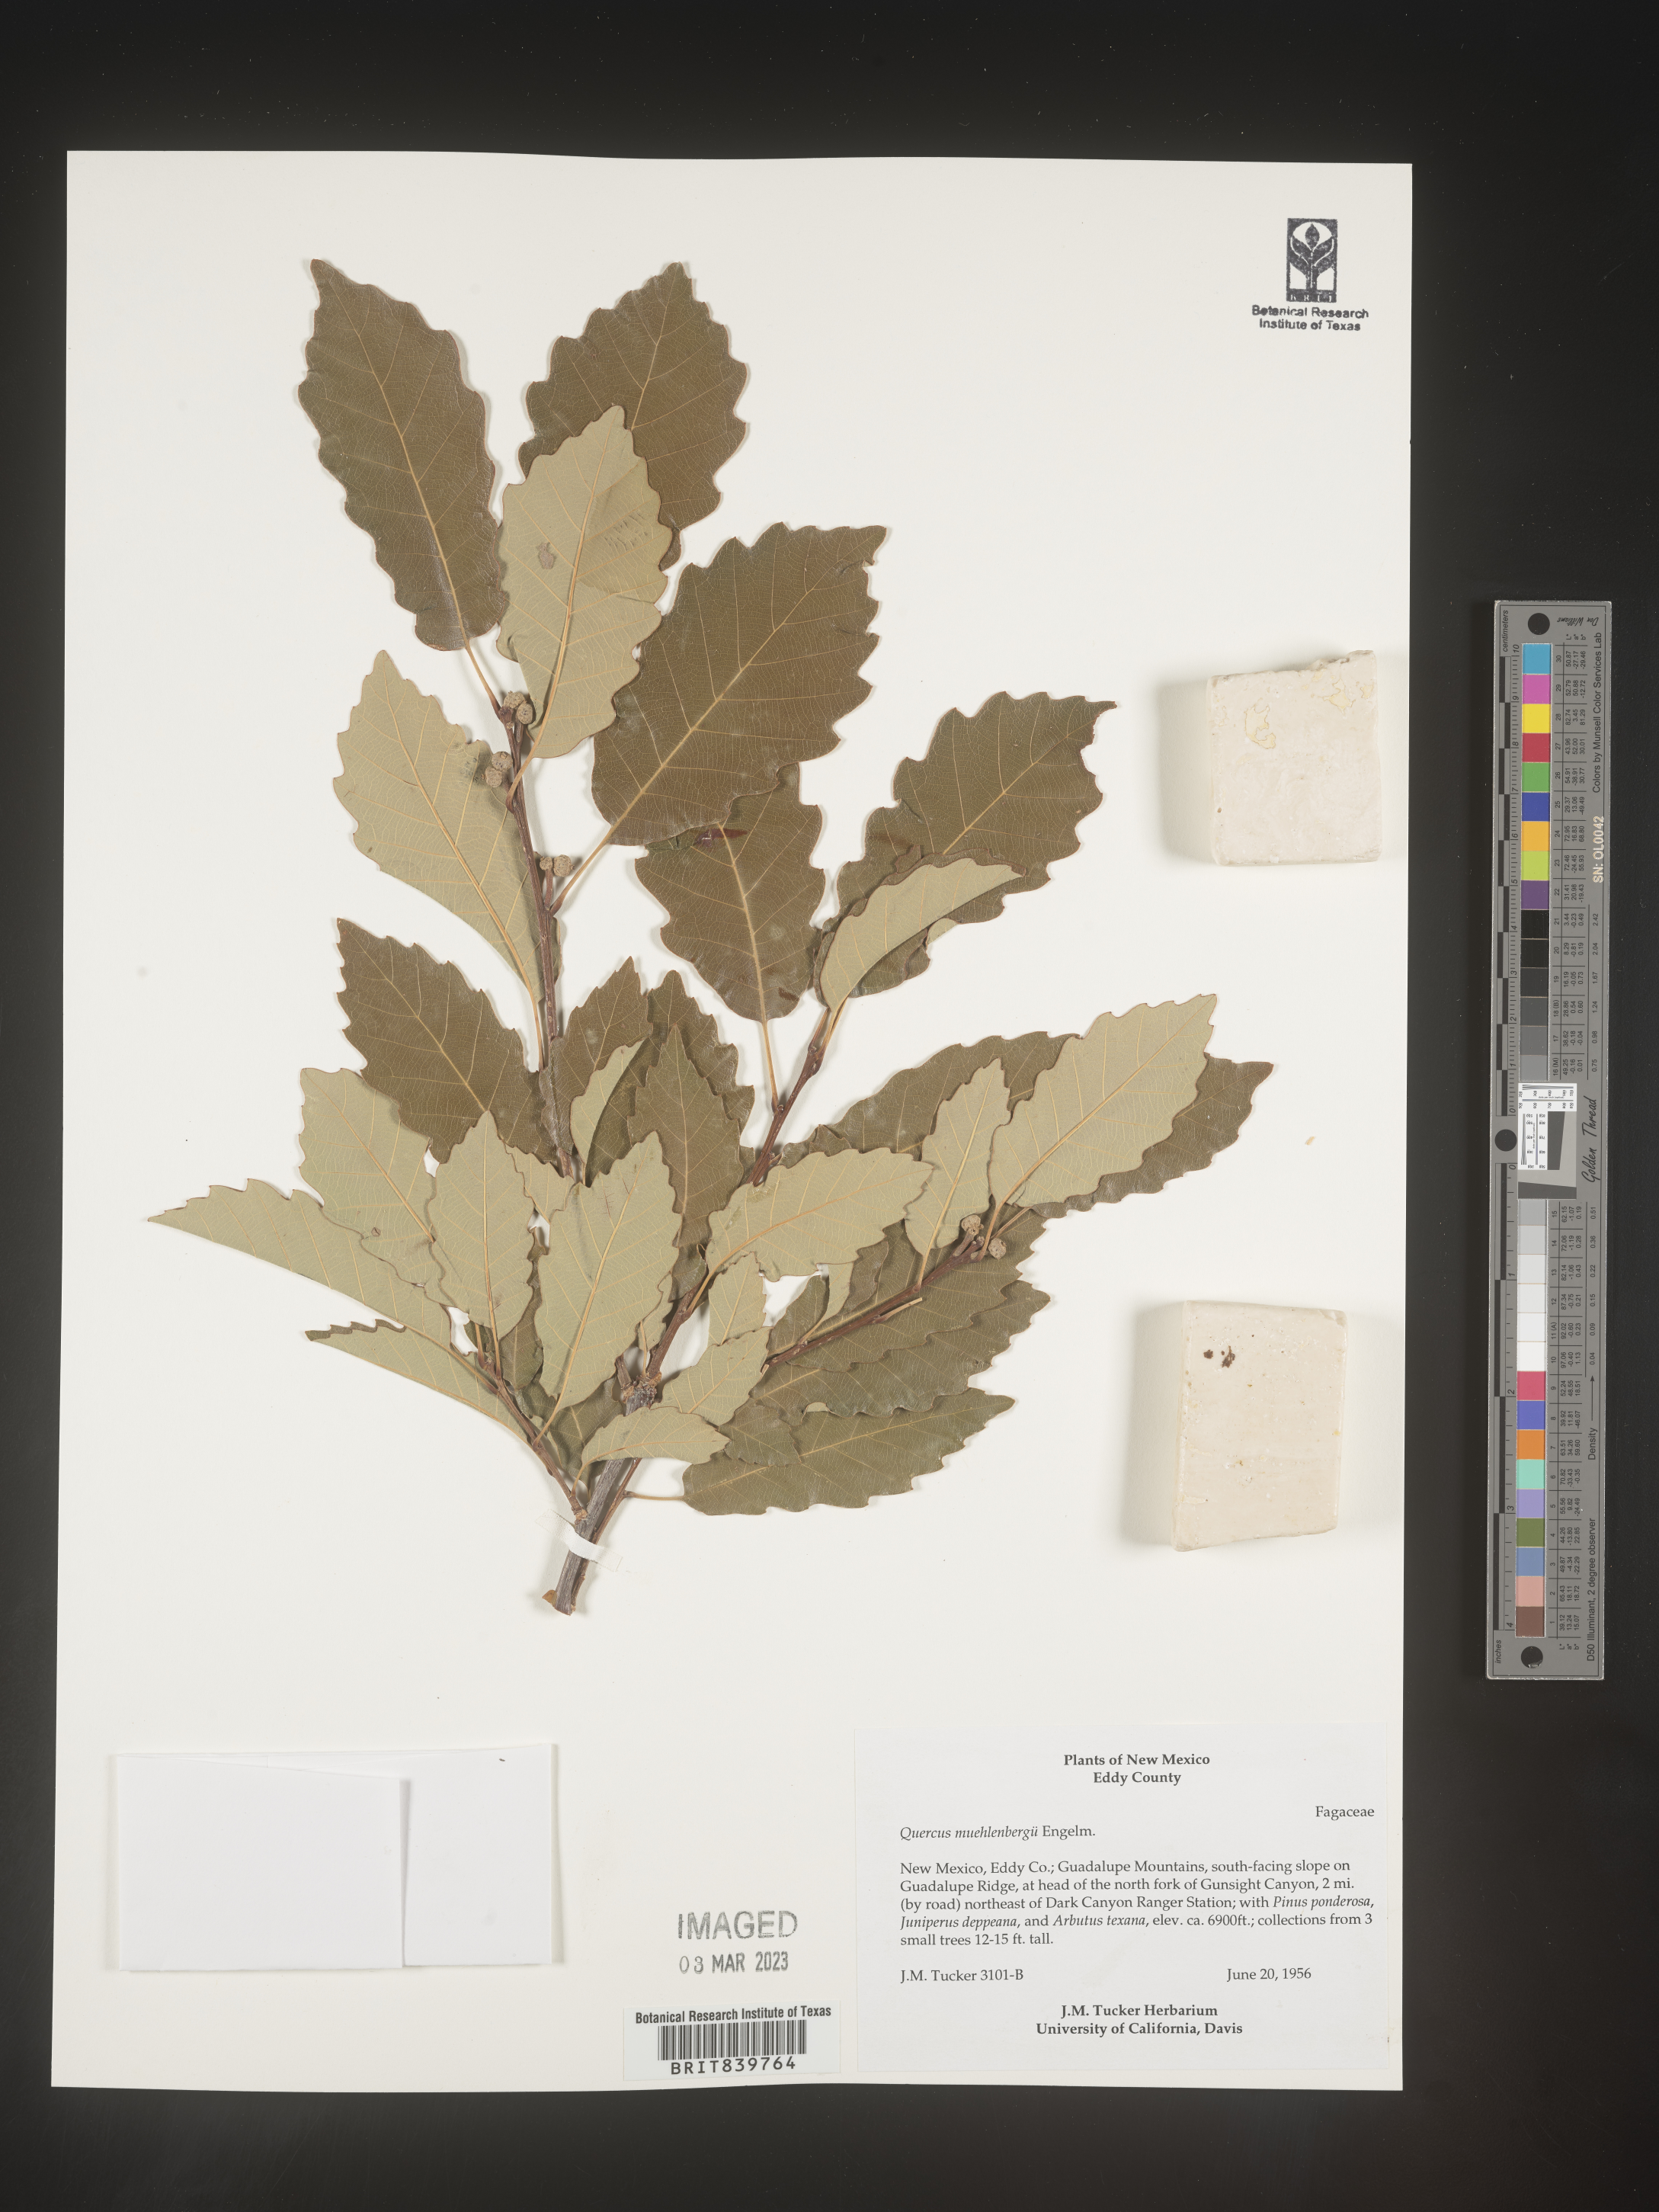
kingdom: Plantae
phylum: Tracheophyta
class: Magnoliopsida
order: Fagales
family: Fagaceae
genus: Quercus
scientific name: Quercus muehlenbergii
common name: Chinkapin oak
